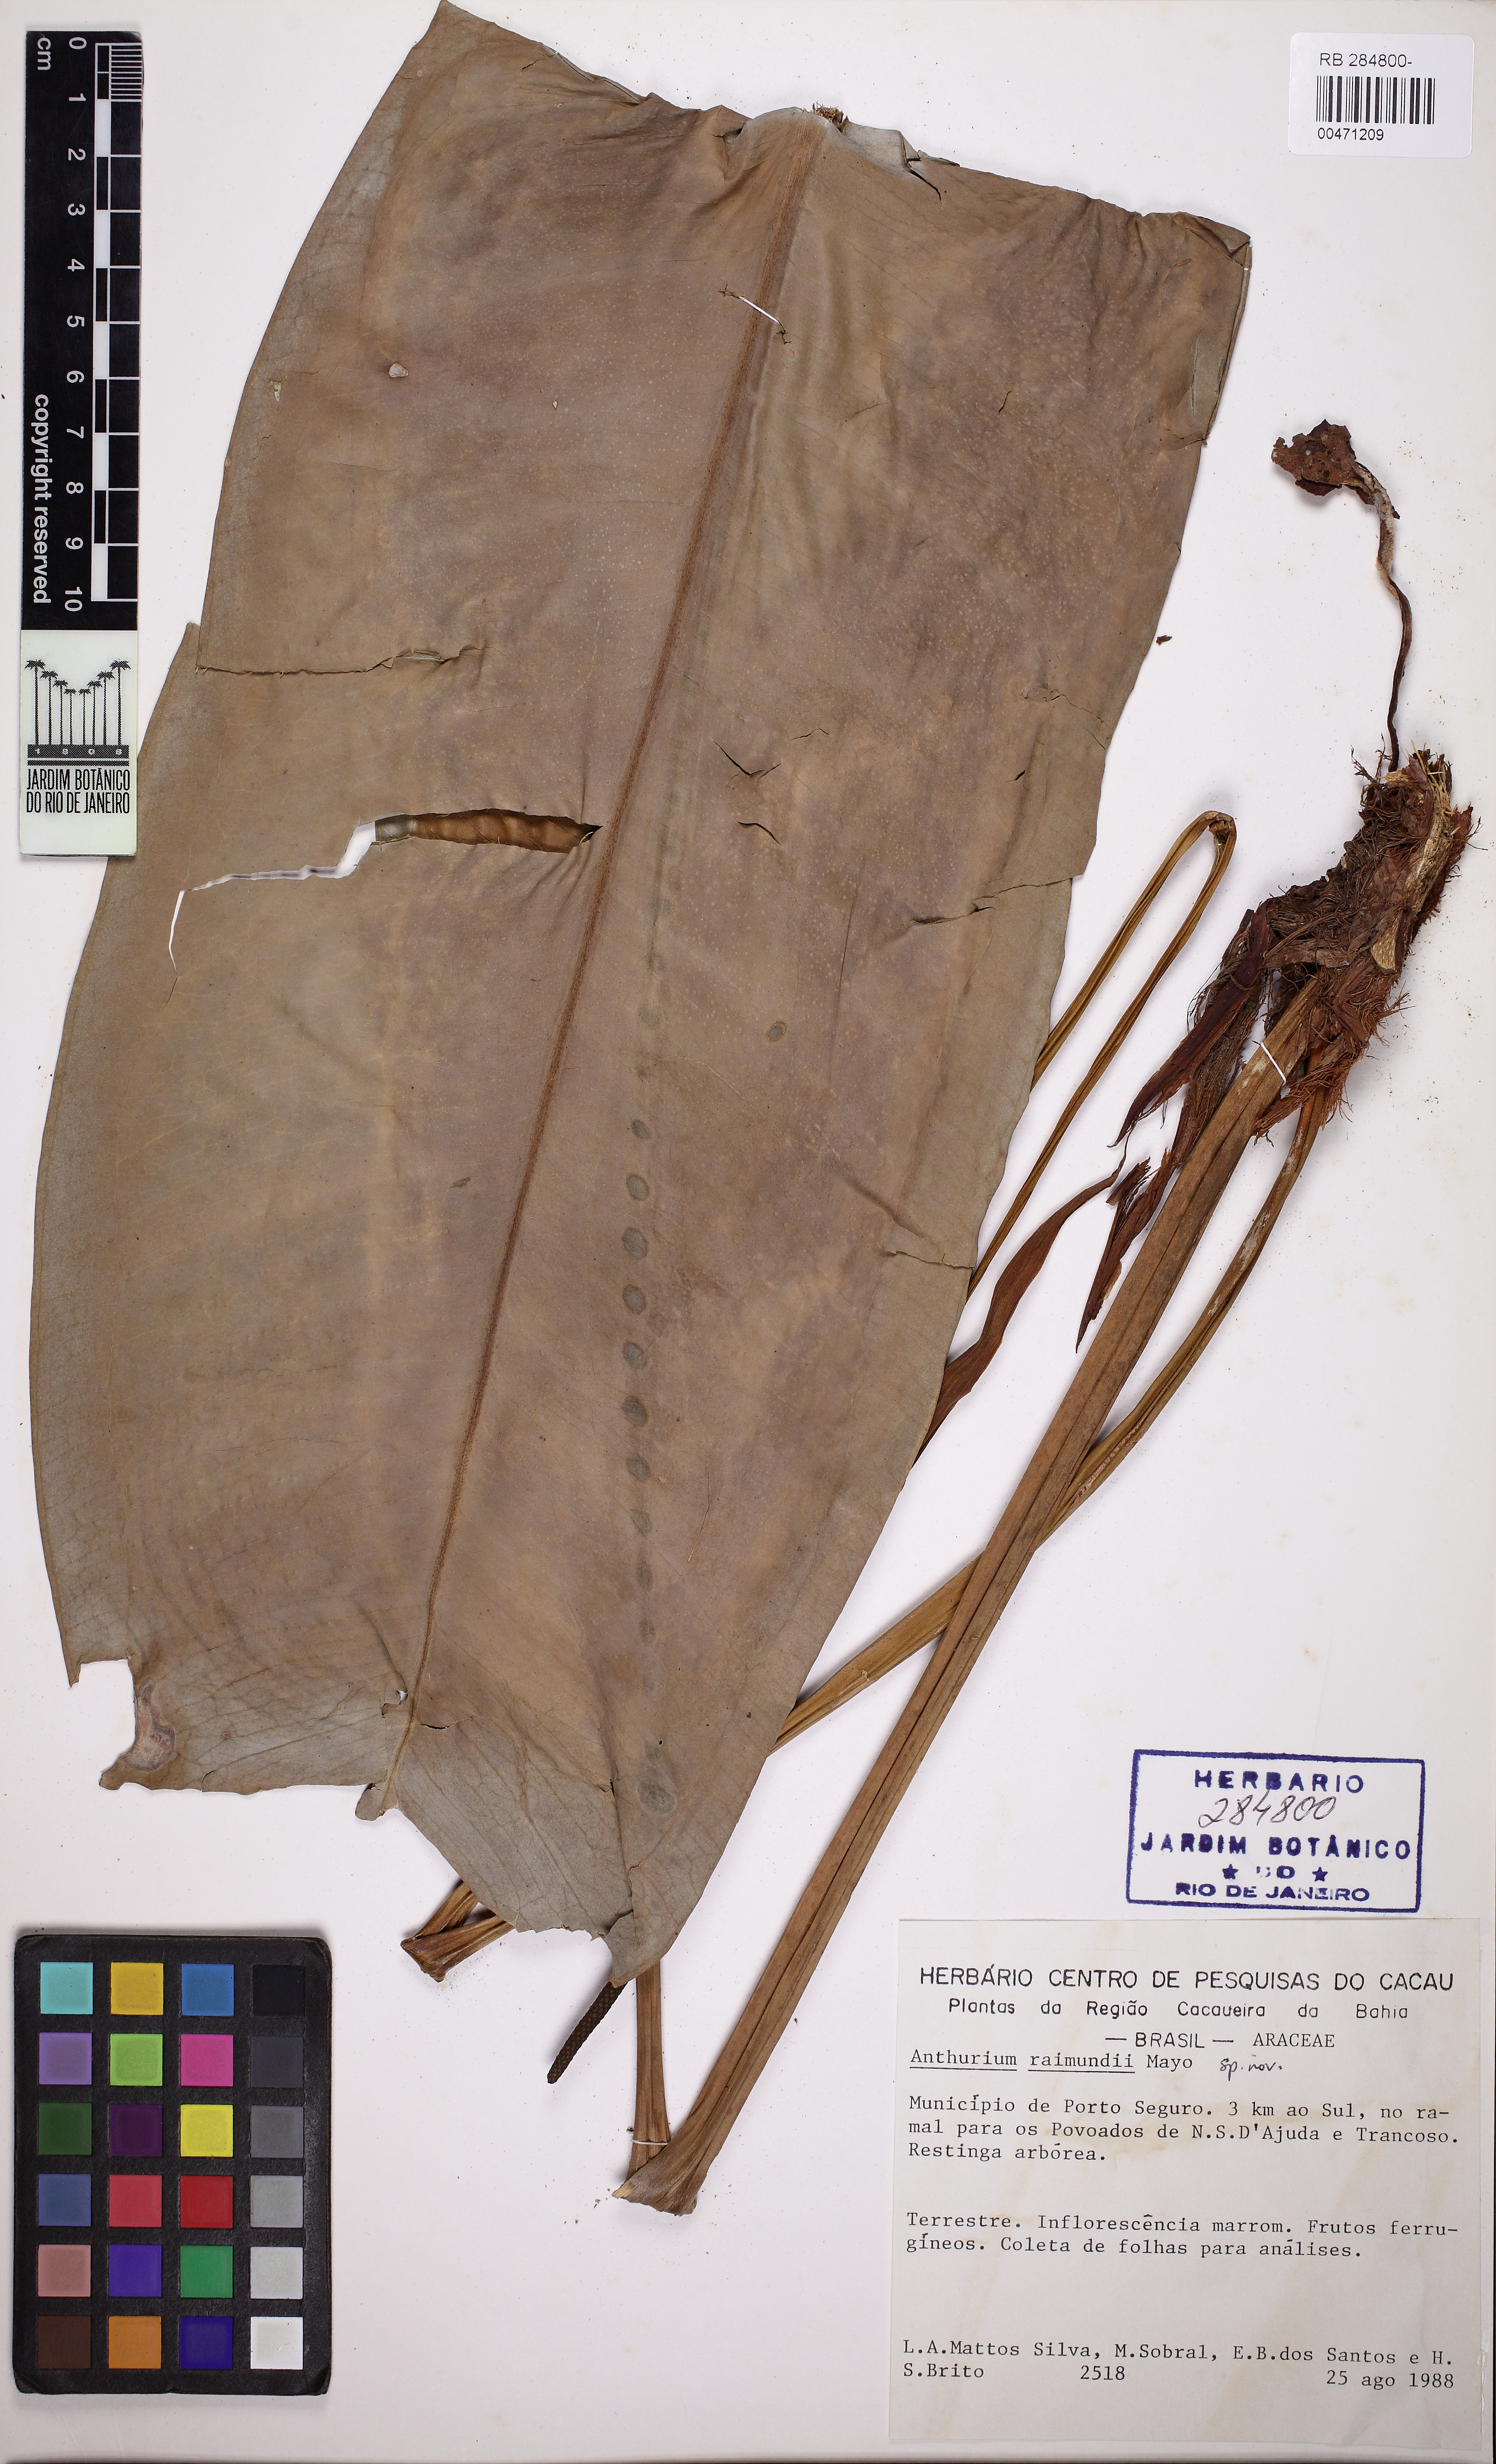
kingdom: Plantae
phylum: Tracheophyta
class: Liliopsida
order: Alismatales
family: Araceae
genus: Anthurium
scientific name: Anthurium raimundii
